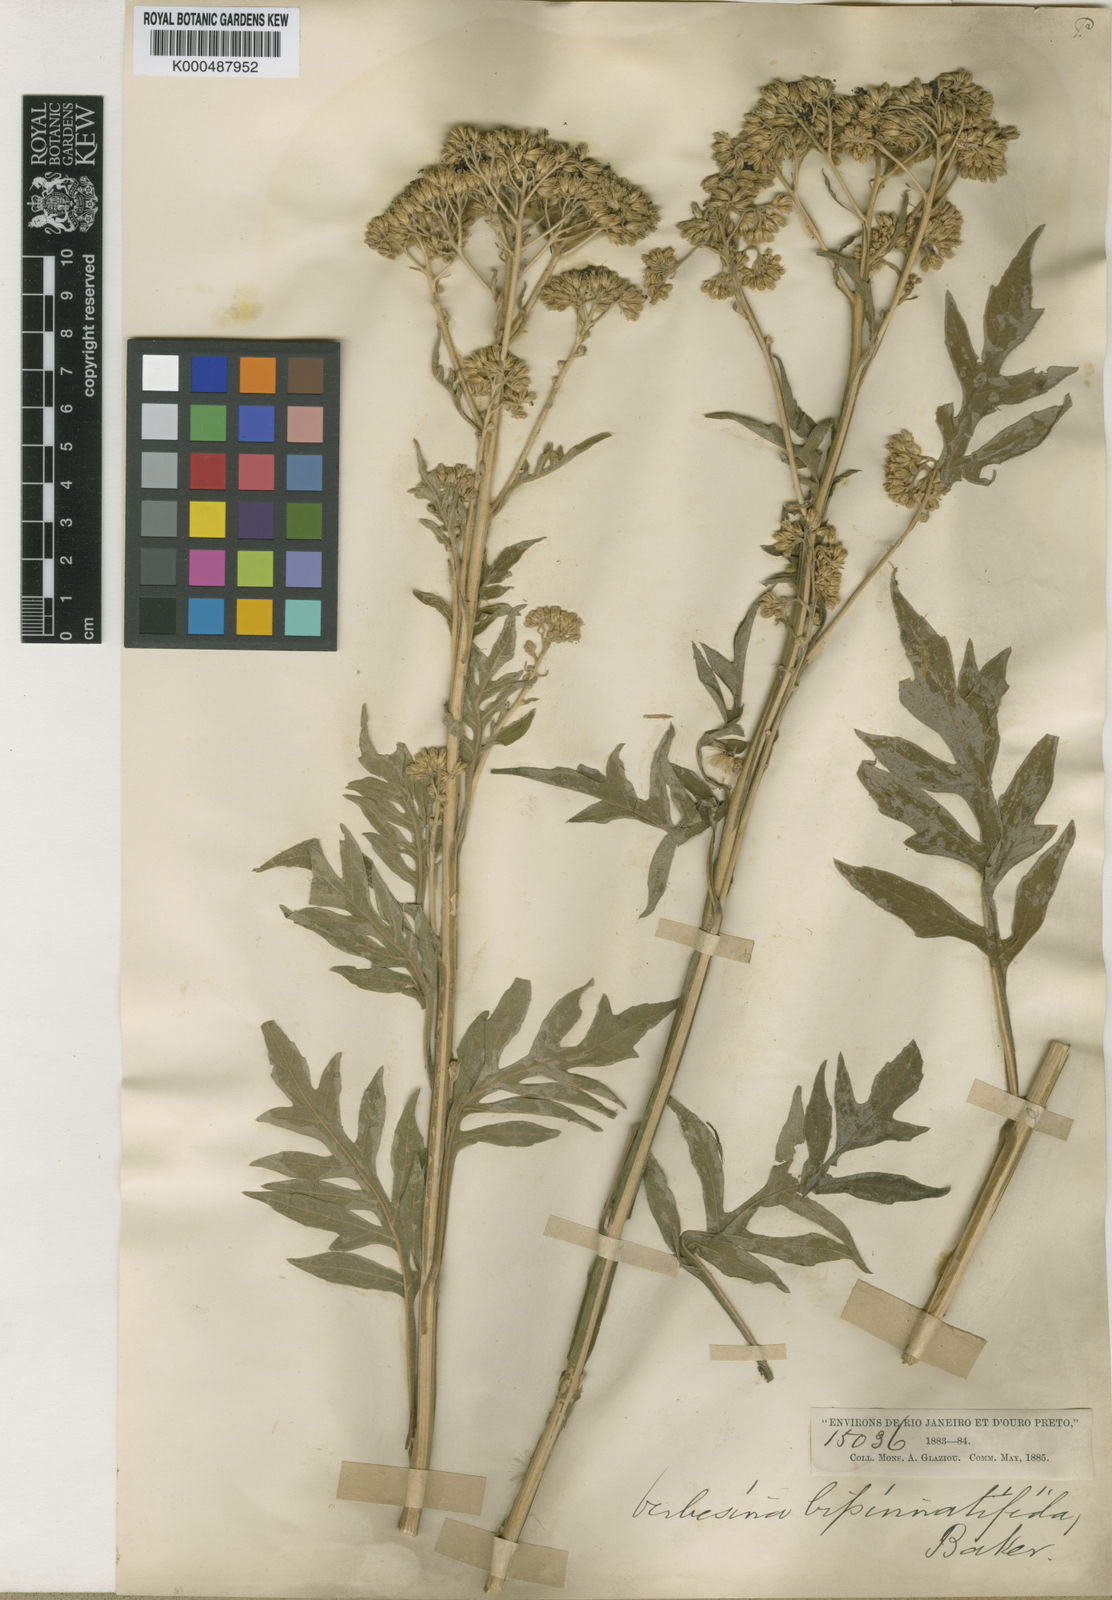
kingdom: Plantae
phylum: Tracheophyta
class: Magnoliopsida
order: Asterales
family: Asteraceae
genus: Verbesina
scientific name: Verbesina bipinnatifida
